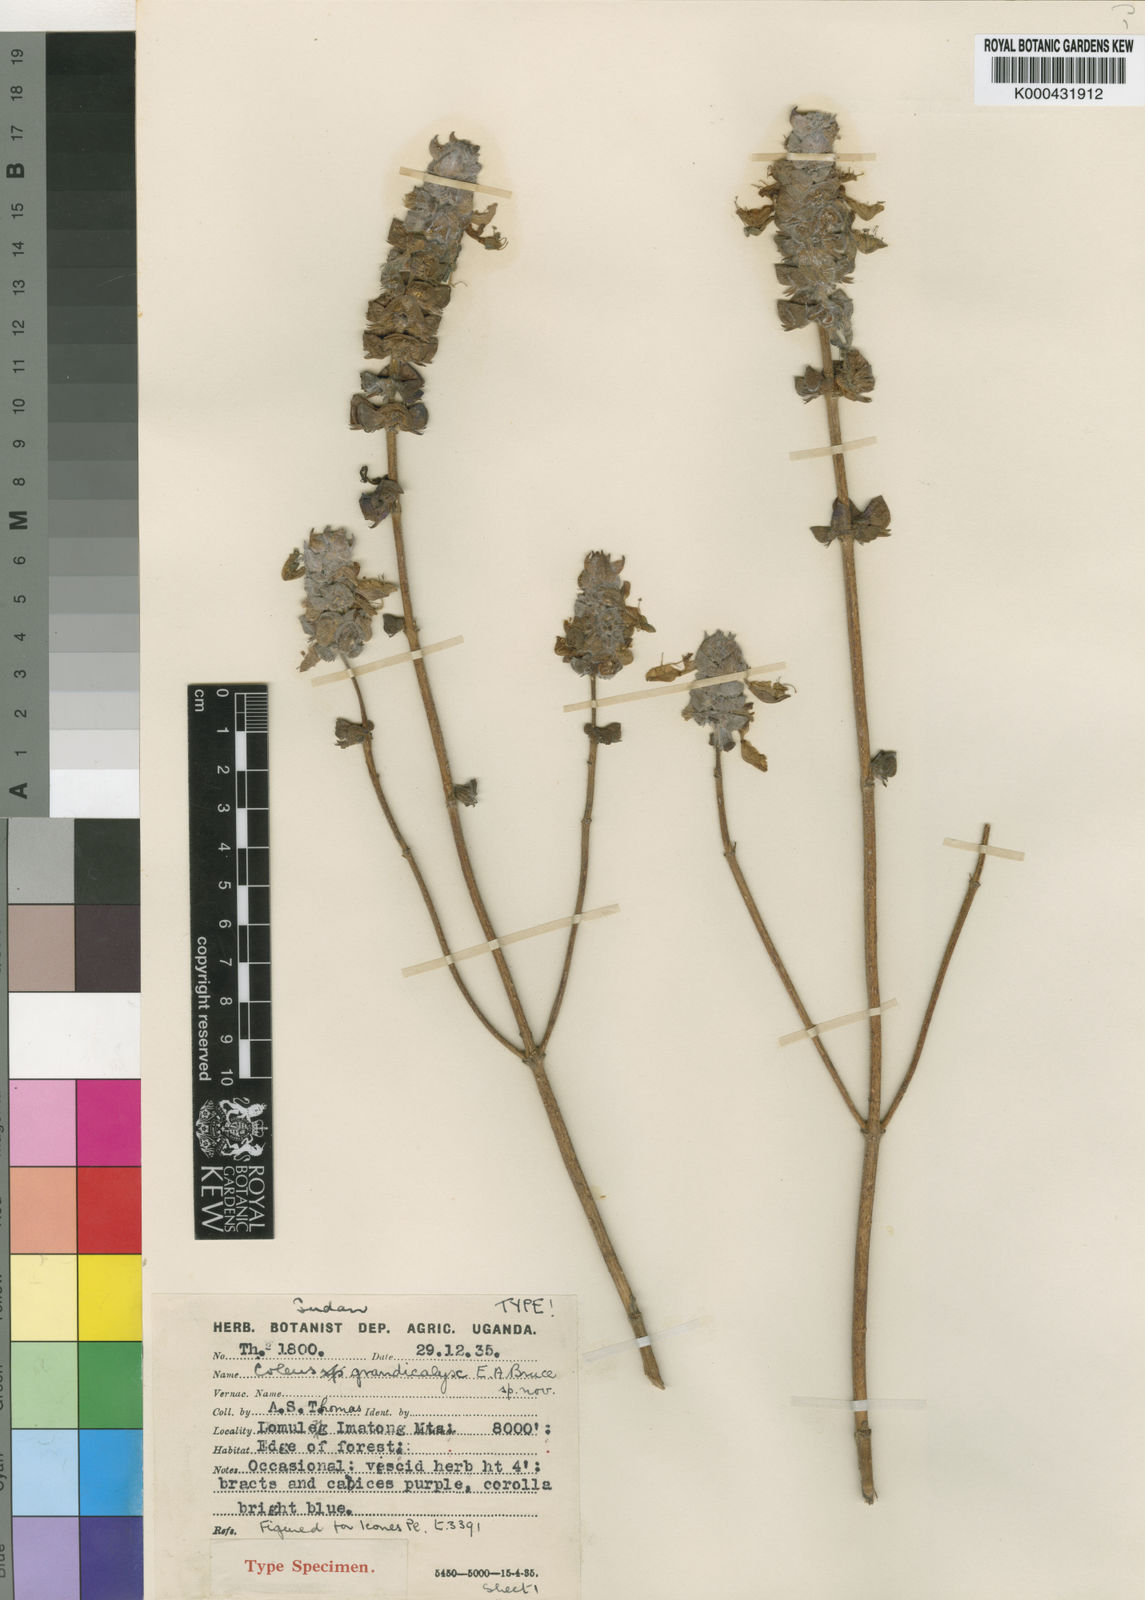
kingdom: Plantae
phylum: Tracheophyta
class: Magnoliopsida
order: Lamiales
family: Lamiaceae
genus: Coleus
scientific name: Coleus grandicalyx
